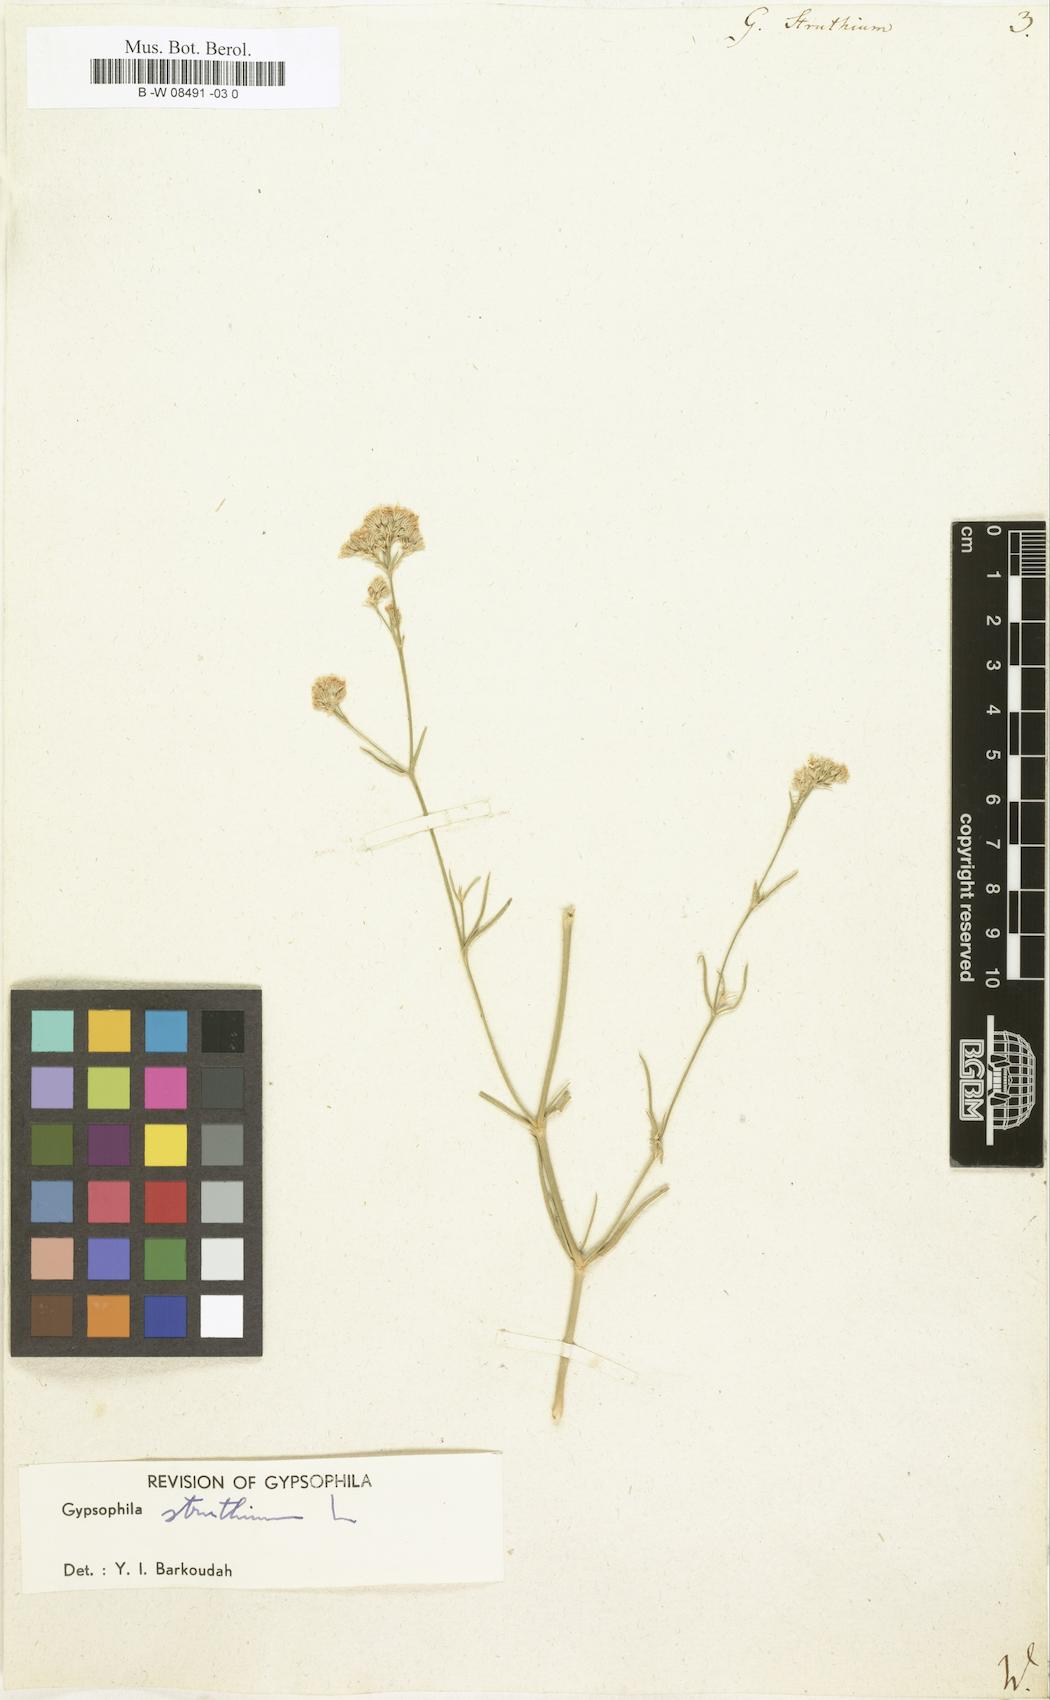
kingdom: Plantae
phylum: Tracheophyta
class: Magnoliopsida
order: Caryophyllales
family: Caryophyllaceae
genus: Gypsophila
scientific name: Gypsophila struthium
